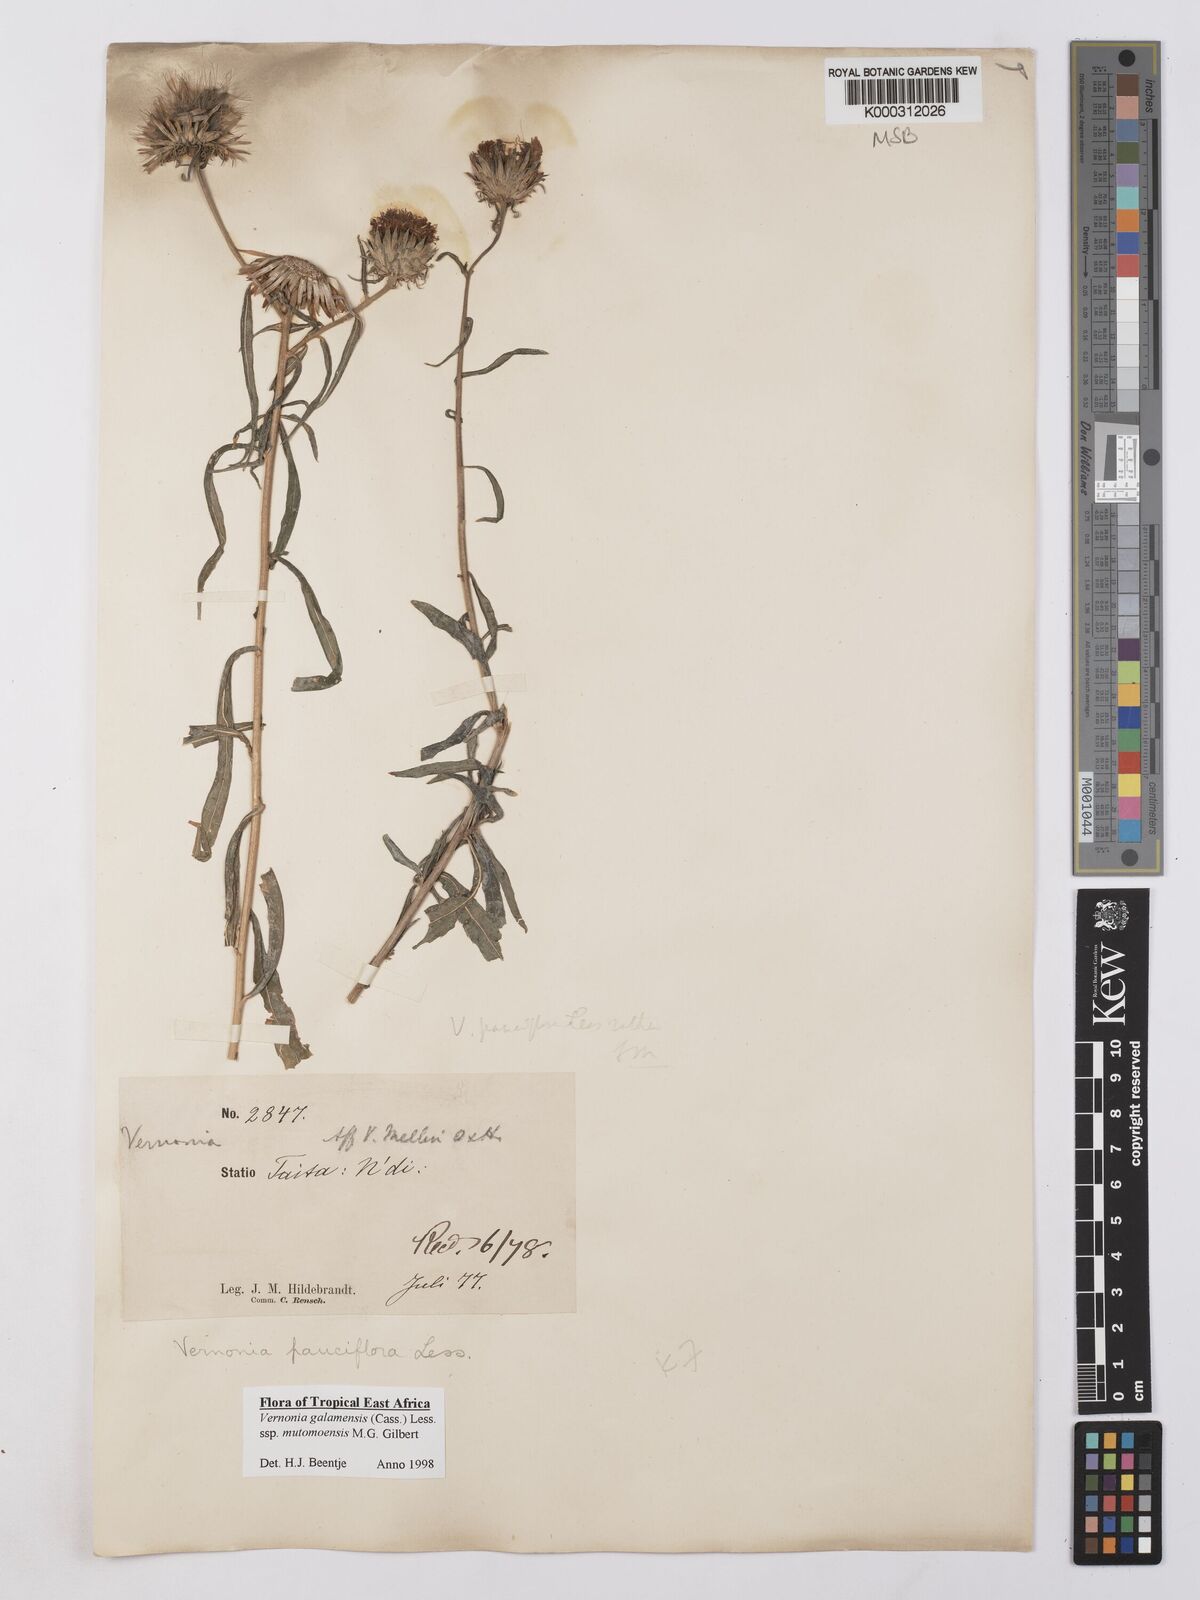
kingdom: Plantae
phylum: Tracheophyta
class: Magnoliopsida
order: Asterales
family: Asteraceae
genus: Vernonia
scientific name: Vernonia galamensis
